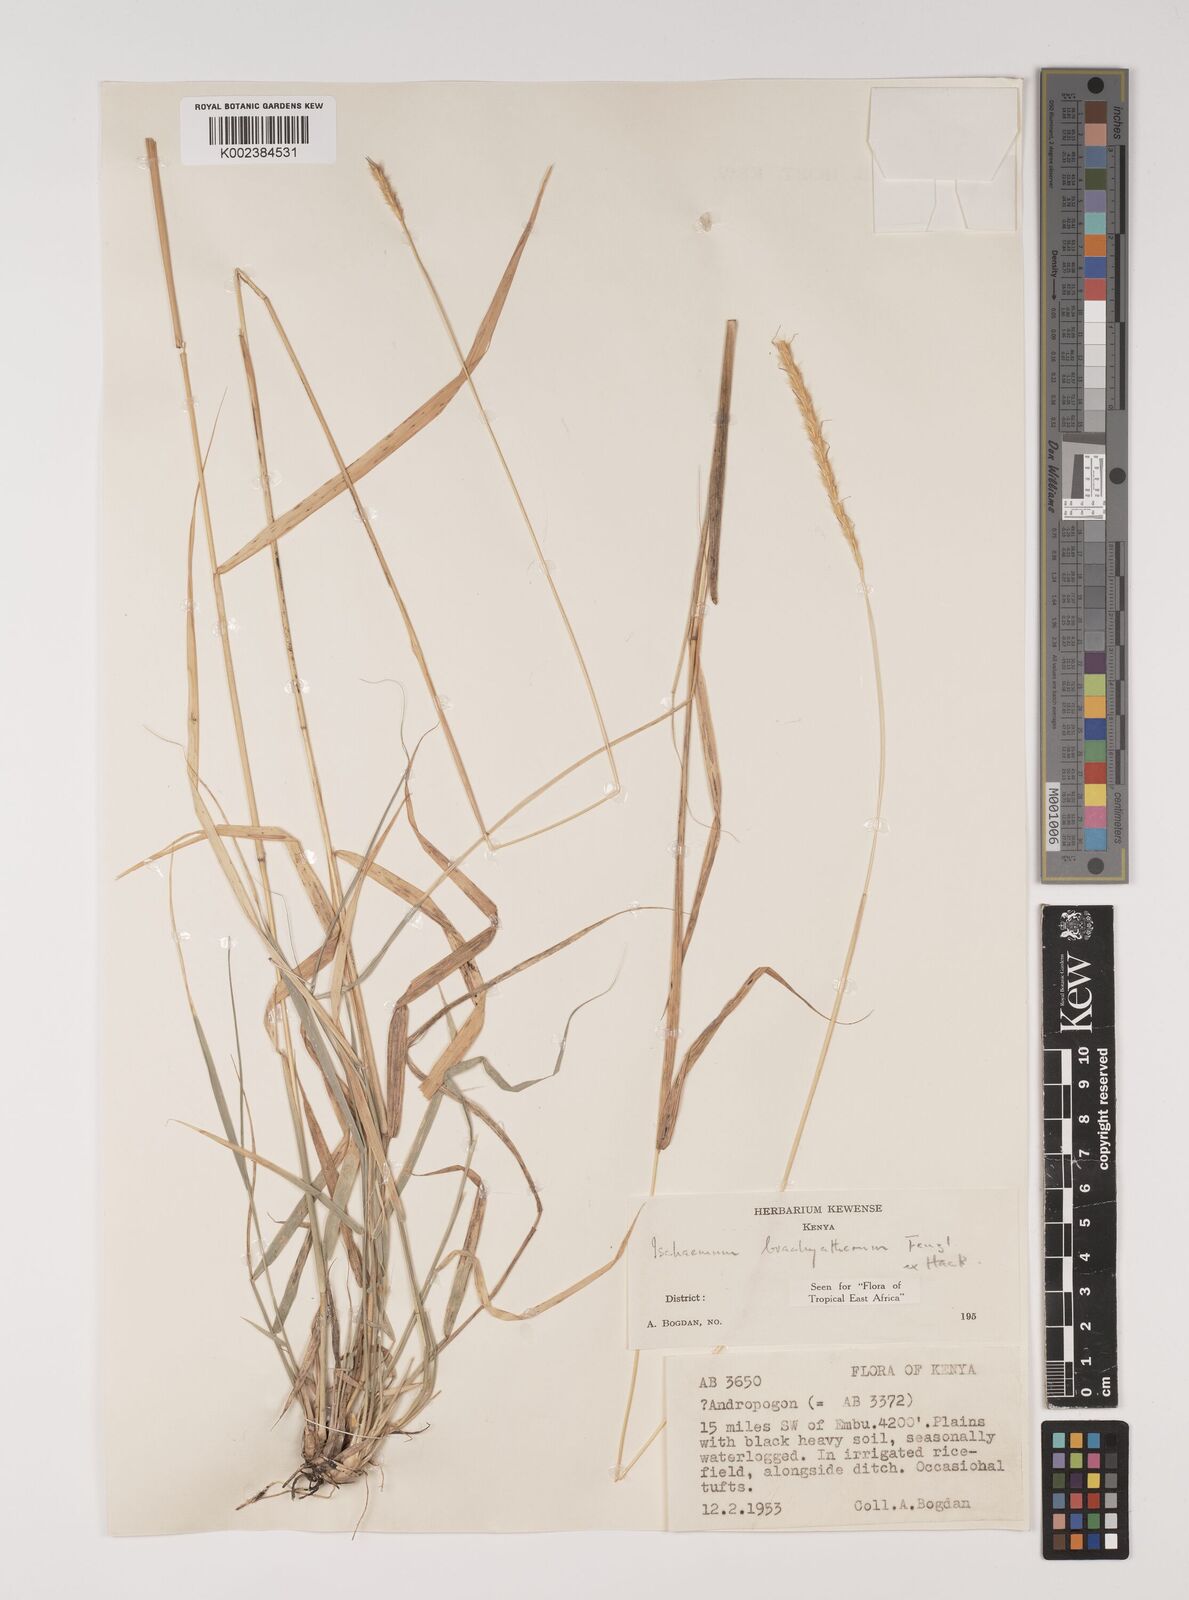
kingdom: Plantae
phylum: Tracheophyta
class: Liliopsida
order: Poales
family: Poaceae
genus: Ischaemum
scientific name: Ischaemum afrum
